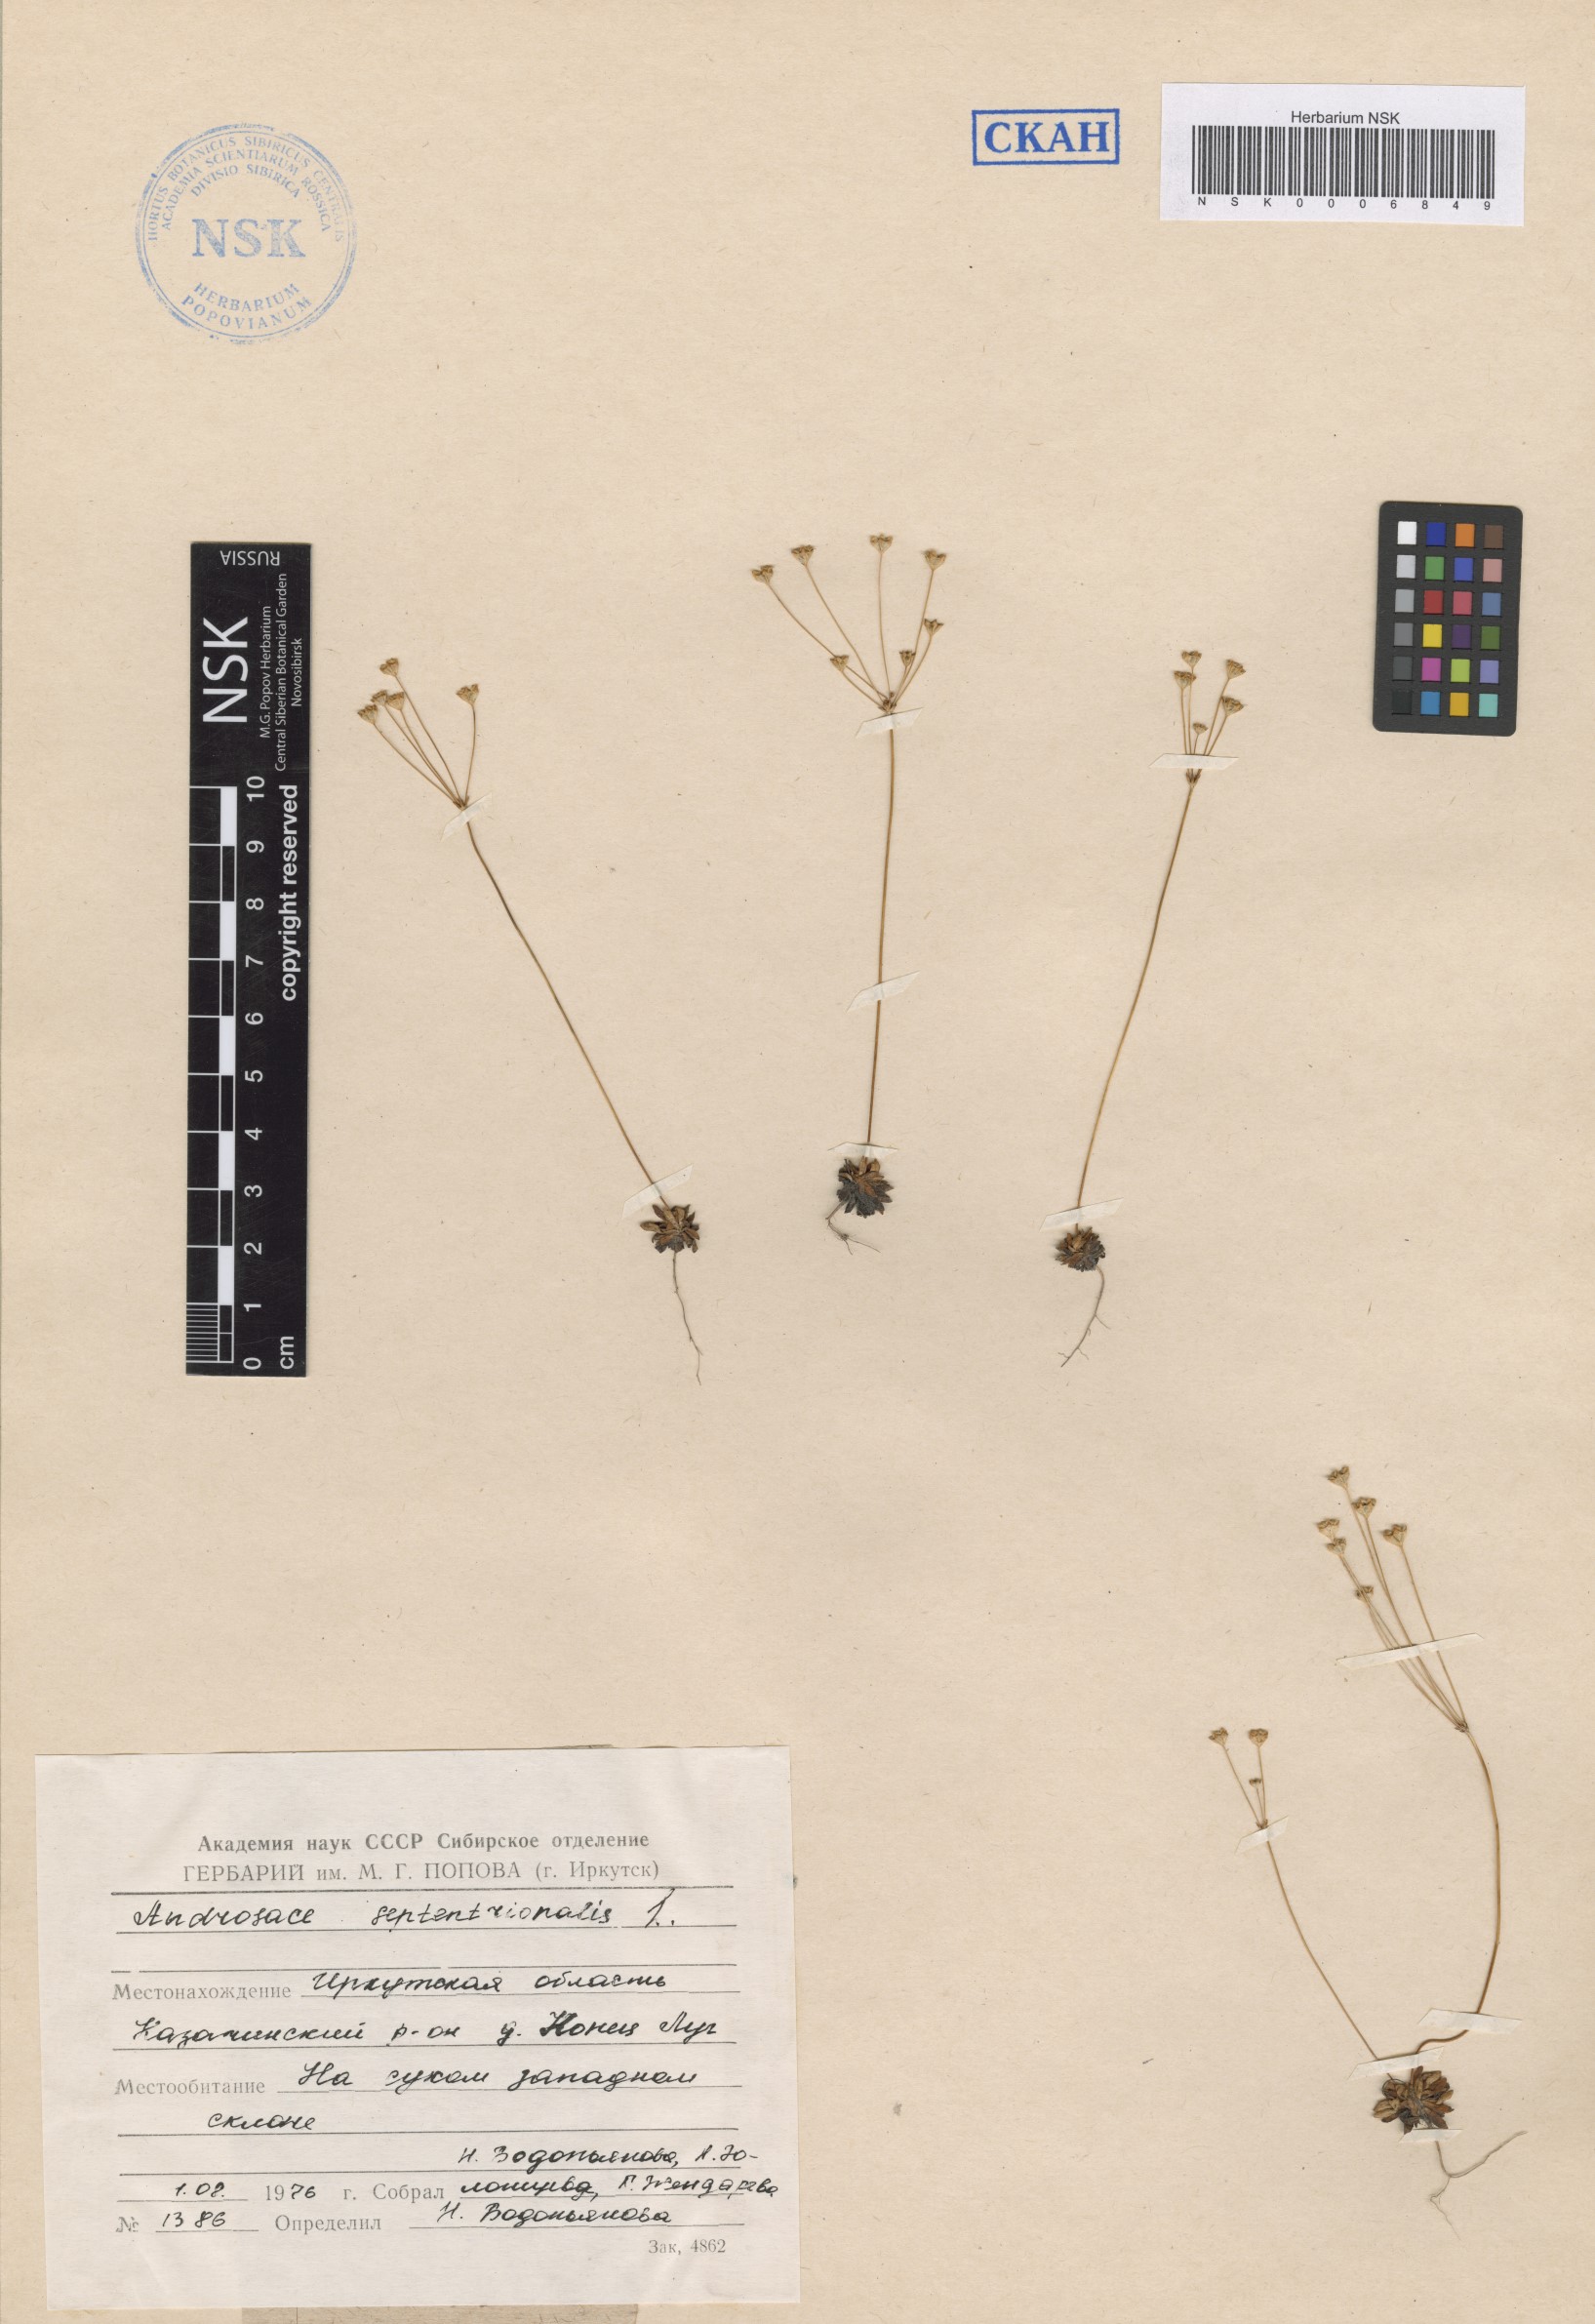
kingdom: Plantae
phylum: Tracheophyta
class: Magnoliopsida
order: Ericales
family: Primulaceae
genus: Androsace
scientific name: Androsace septentrionalis
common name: Hairy northern fairy-candelabra
